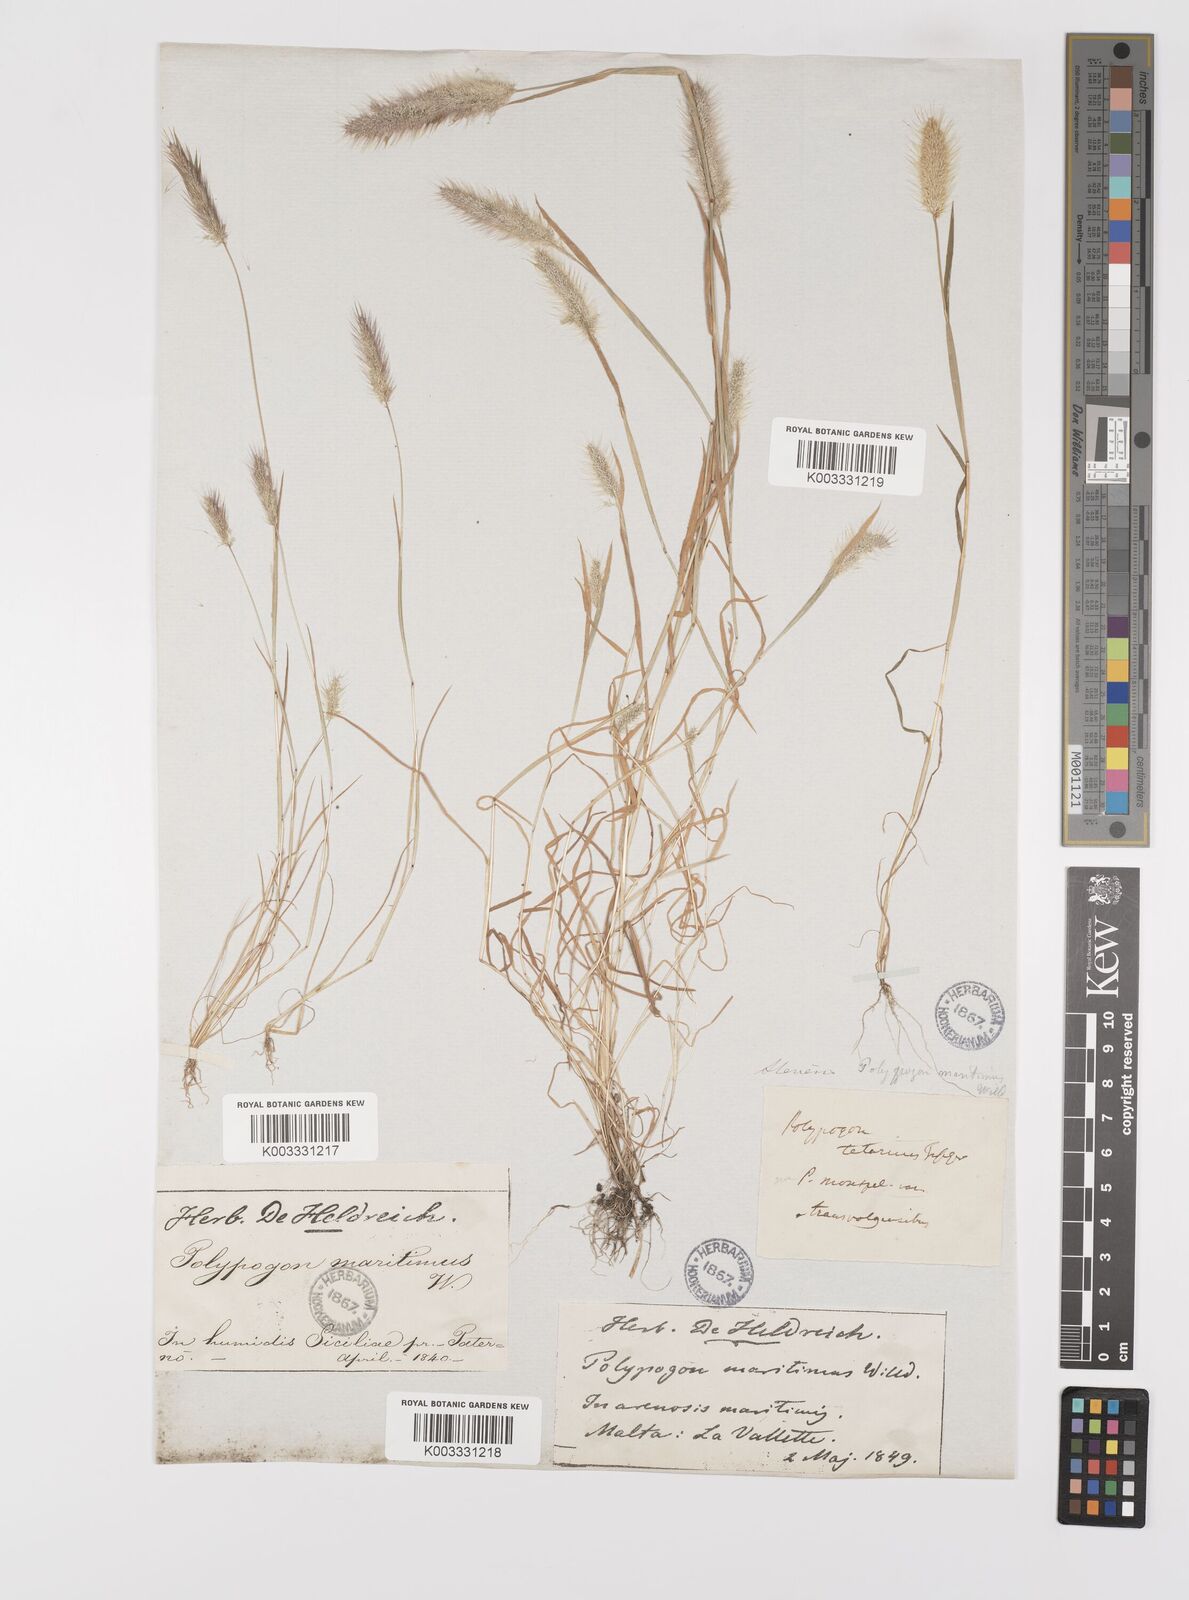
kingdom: Plantae
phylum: Tracheophyta
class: Liliopsida
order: Poales
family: Poaceae
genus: Polypogon
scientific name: Polypogon maritimus
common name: Mediterranean rabbitsfoot grass
